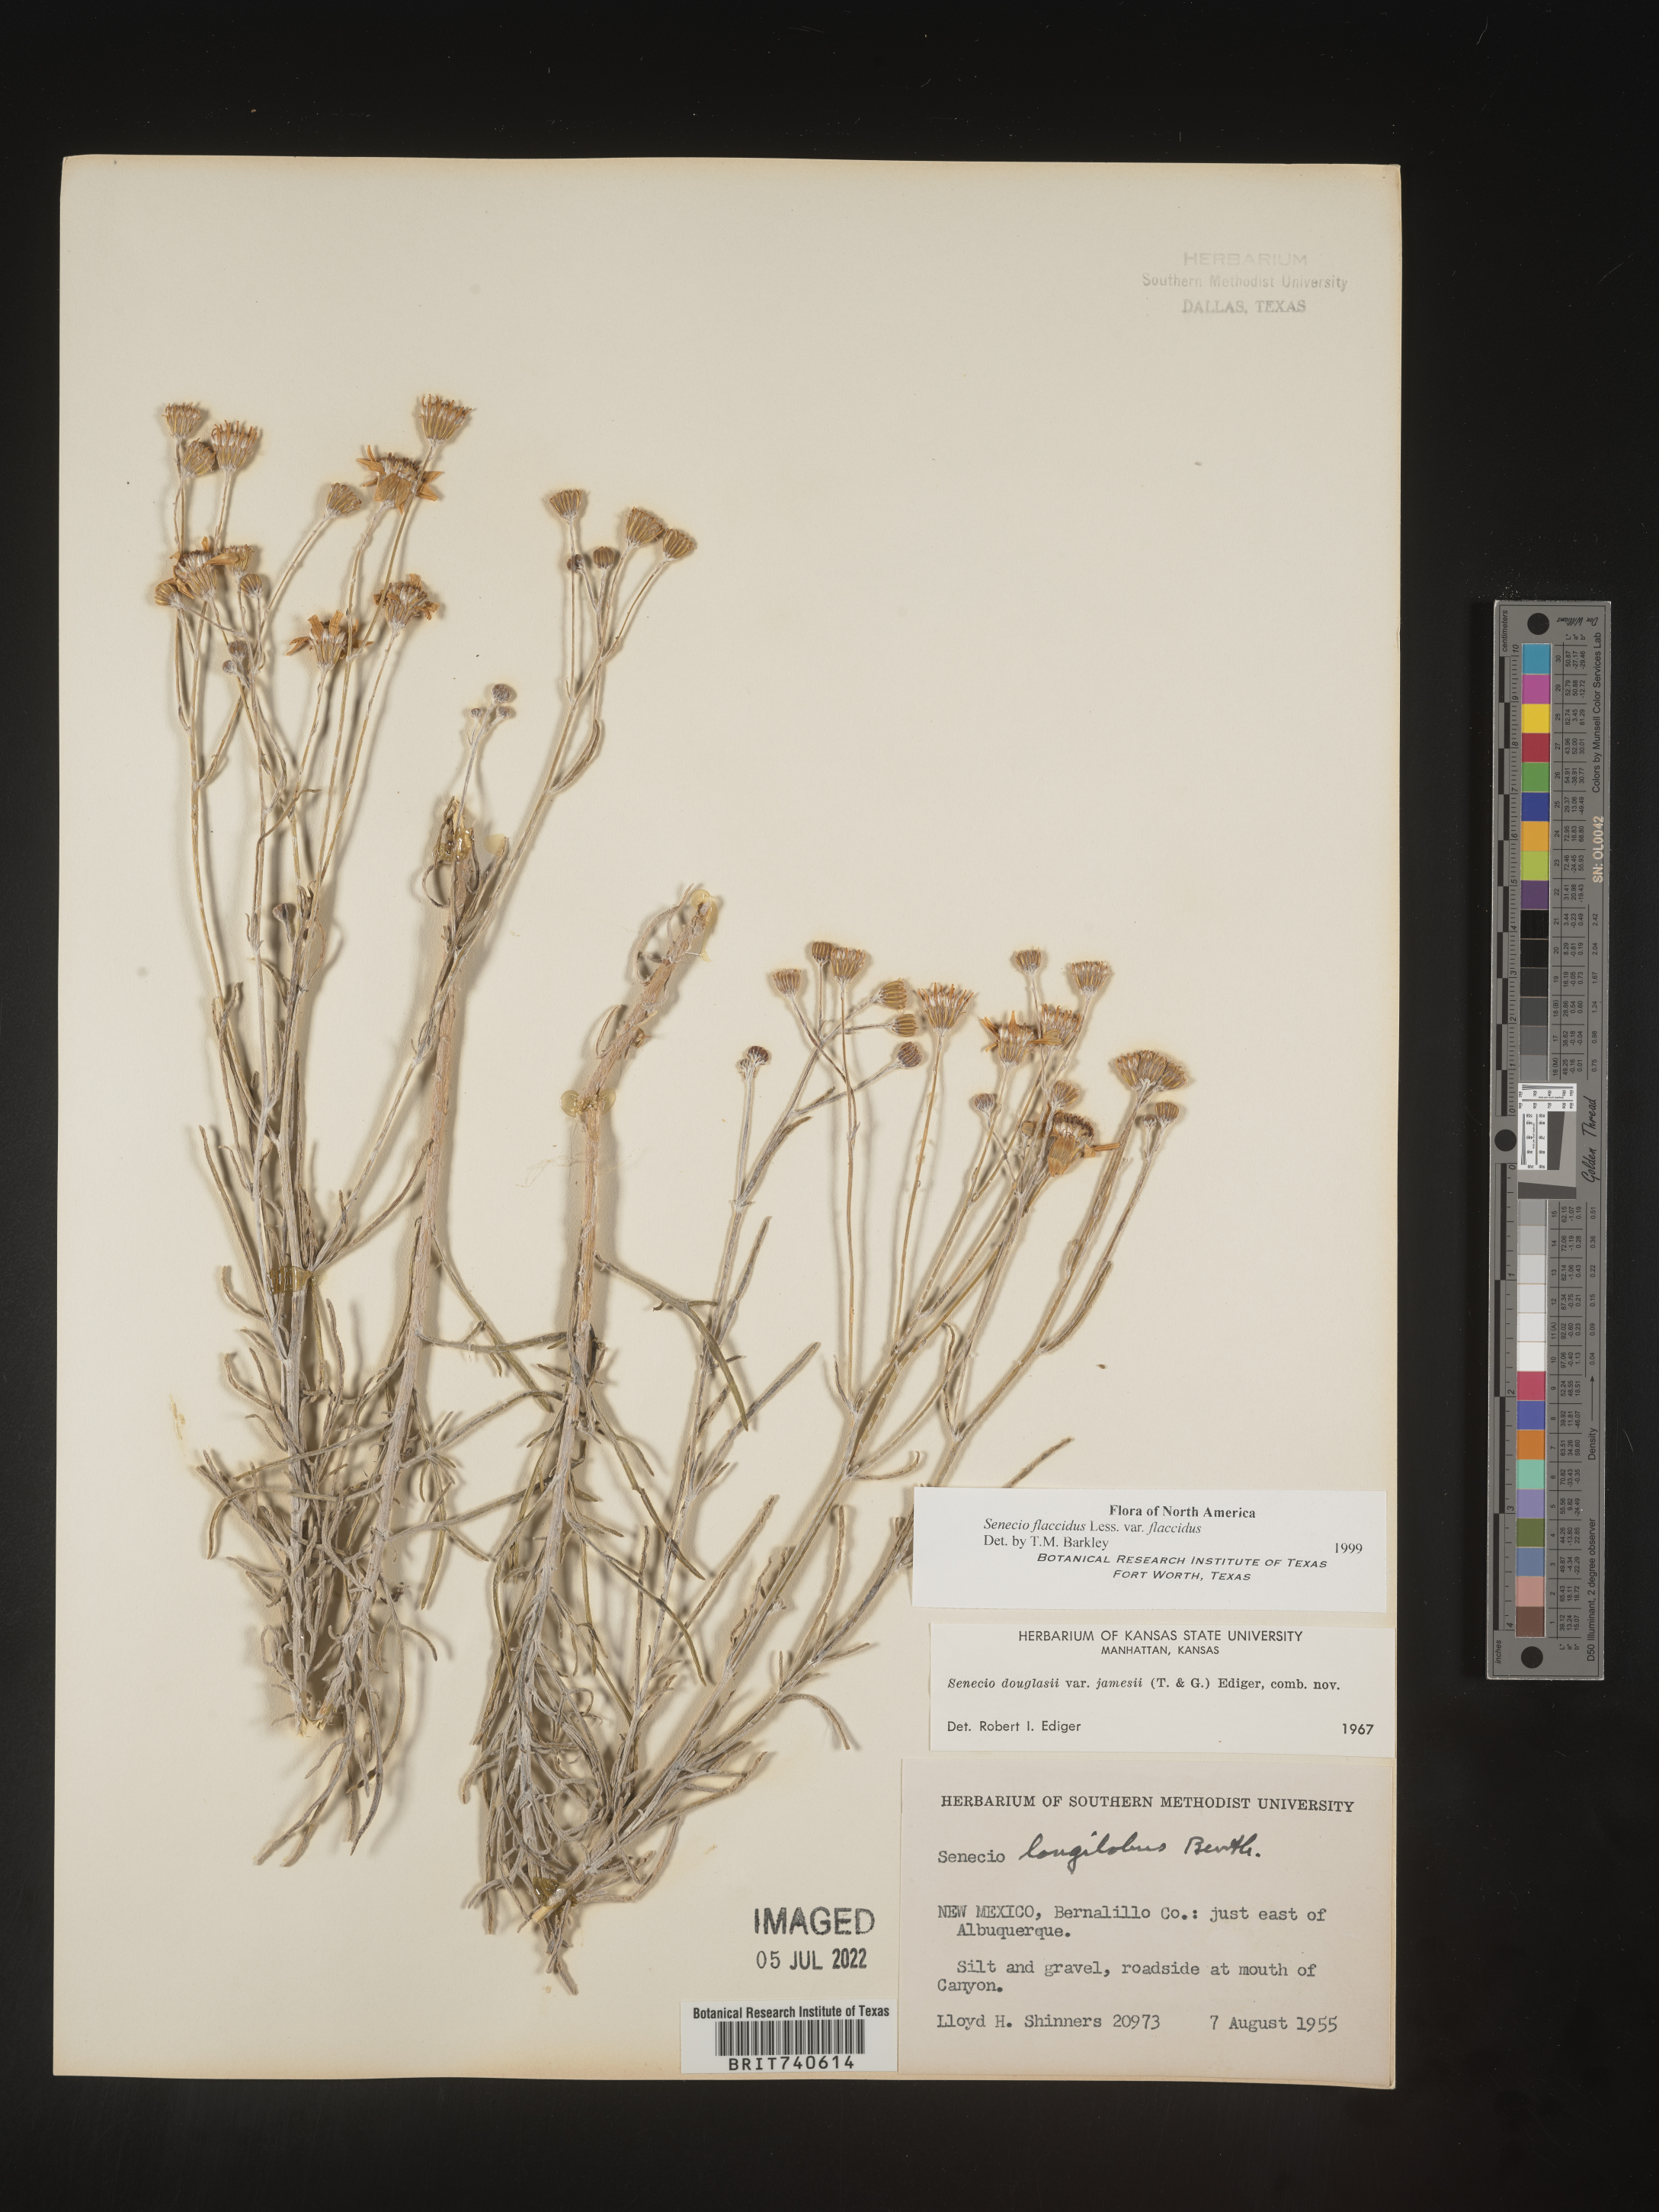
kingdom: Plantae
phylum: Tracheophyta
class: Magnoliopsida
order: Asterales
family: Asteraceae
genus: Senecio
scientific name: Senecio flaccidus
